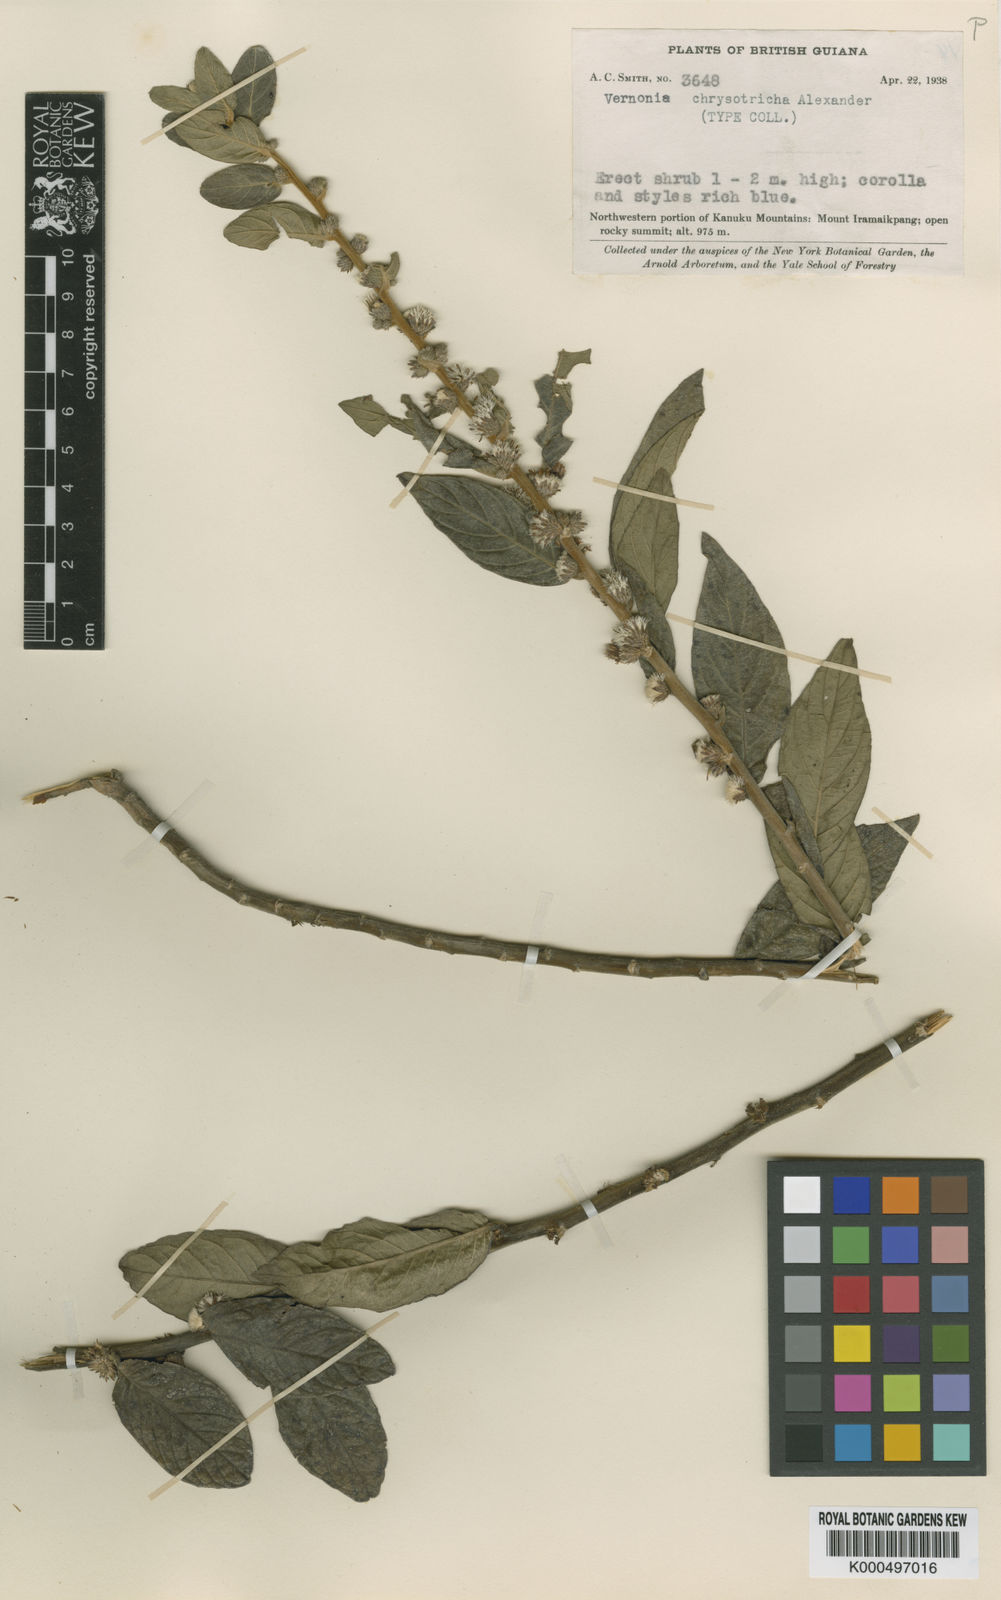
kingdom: Plantae
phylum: Tracheophyta
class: Magnoliopsida
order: Asterales
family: Asteraceae
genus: Lepidaploa
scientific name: Lepidaploa chrysotricha
